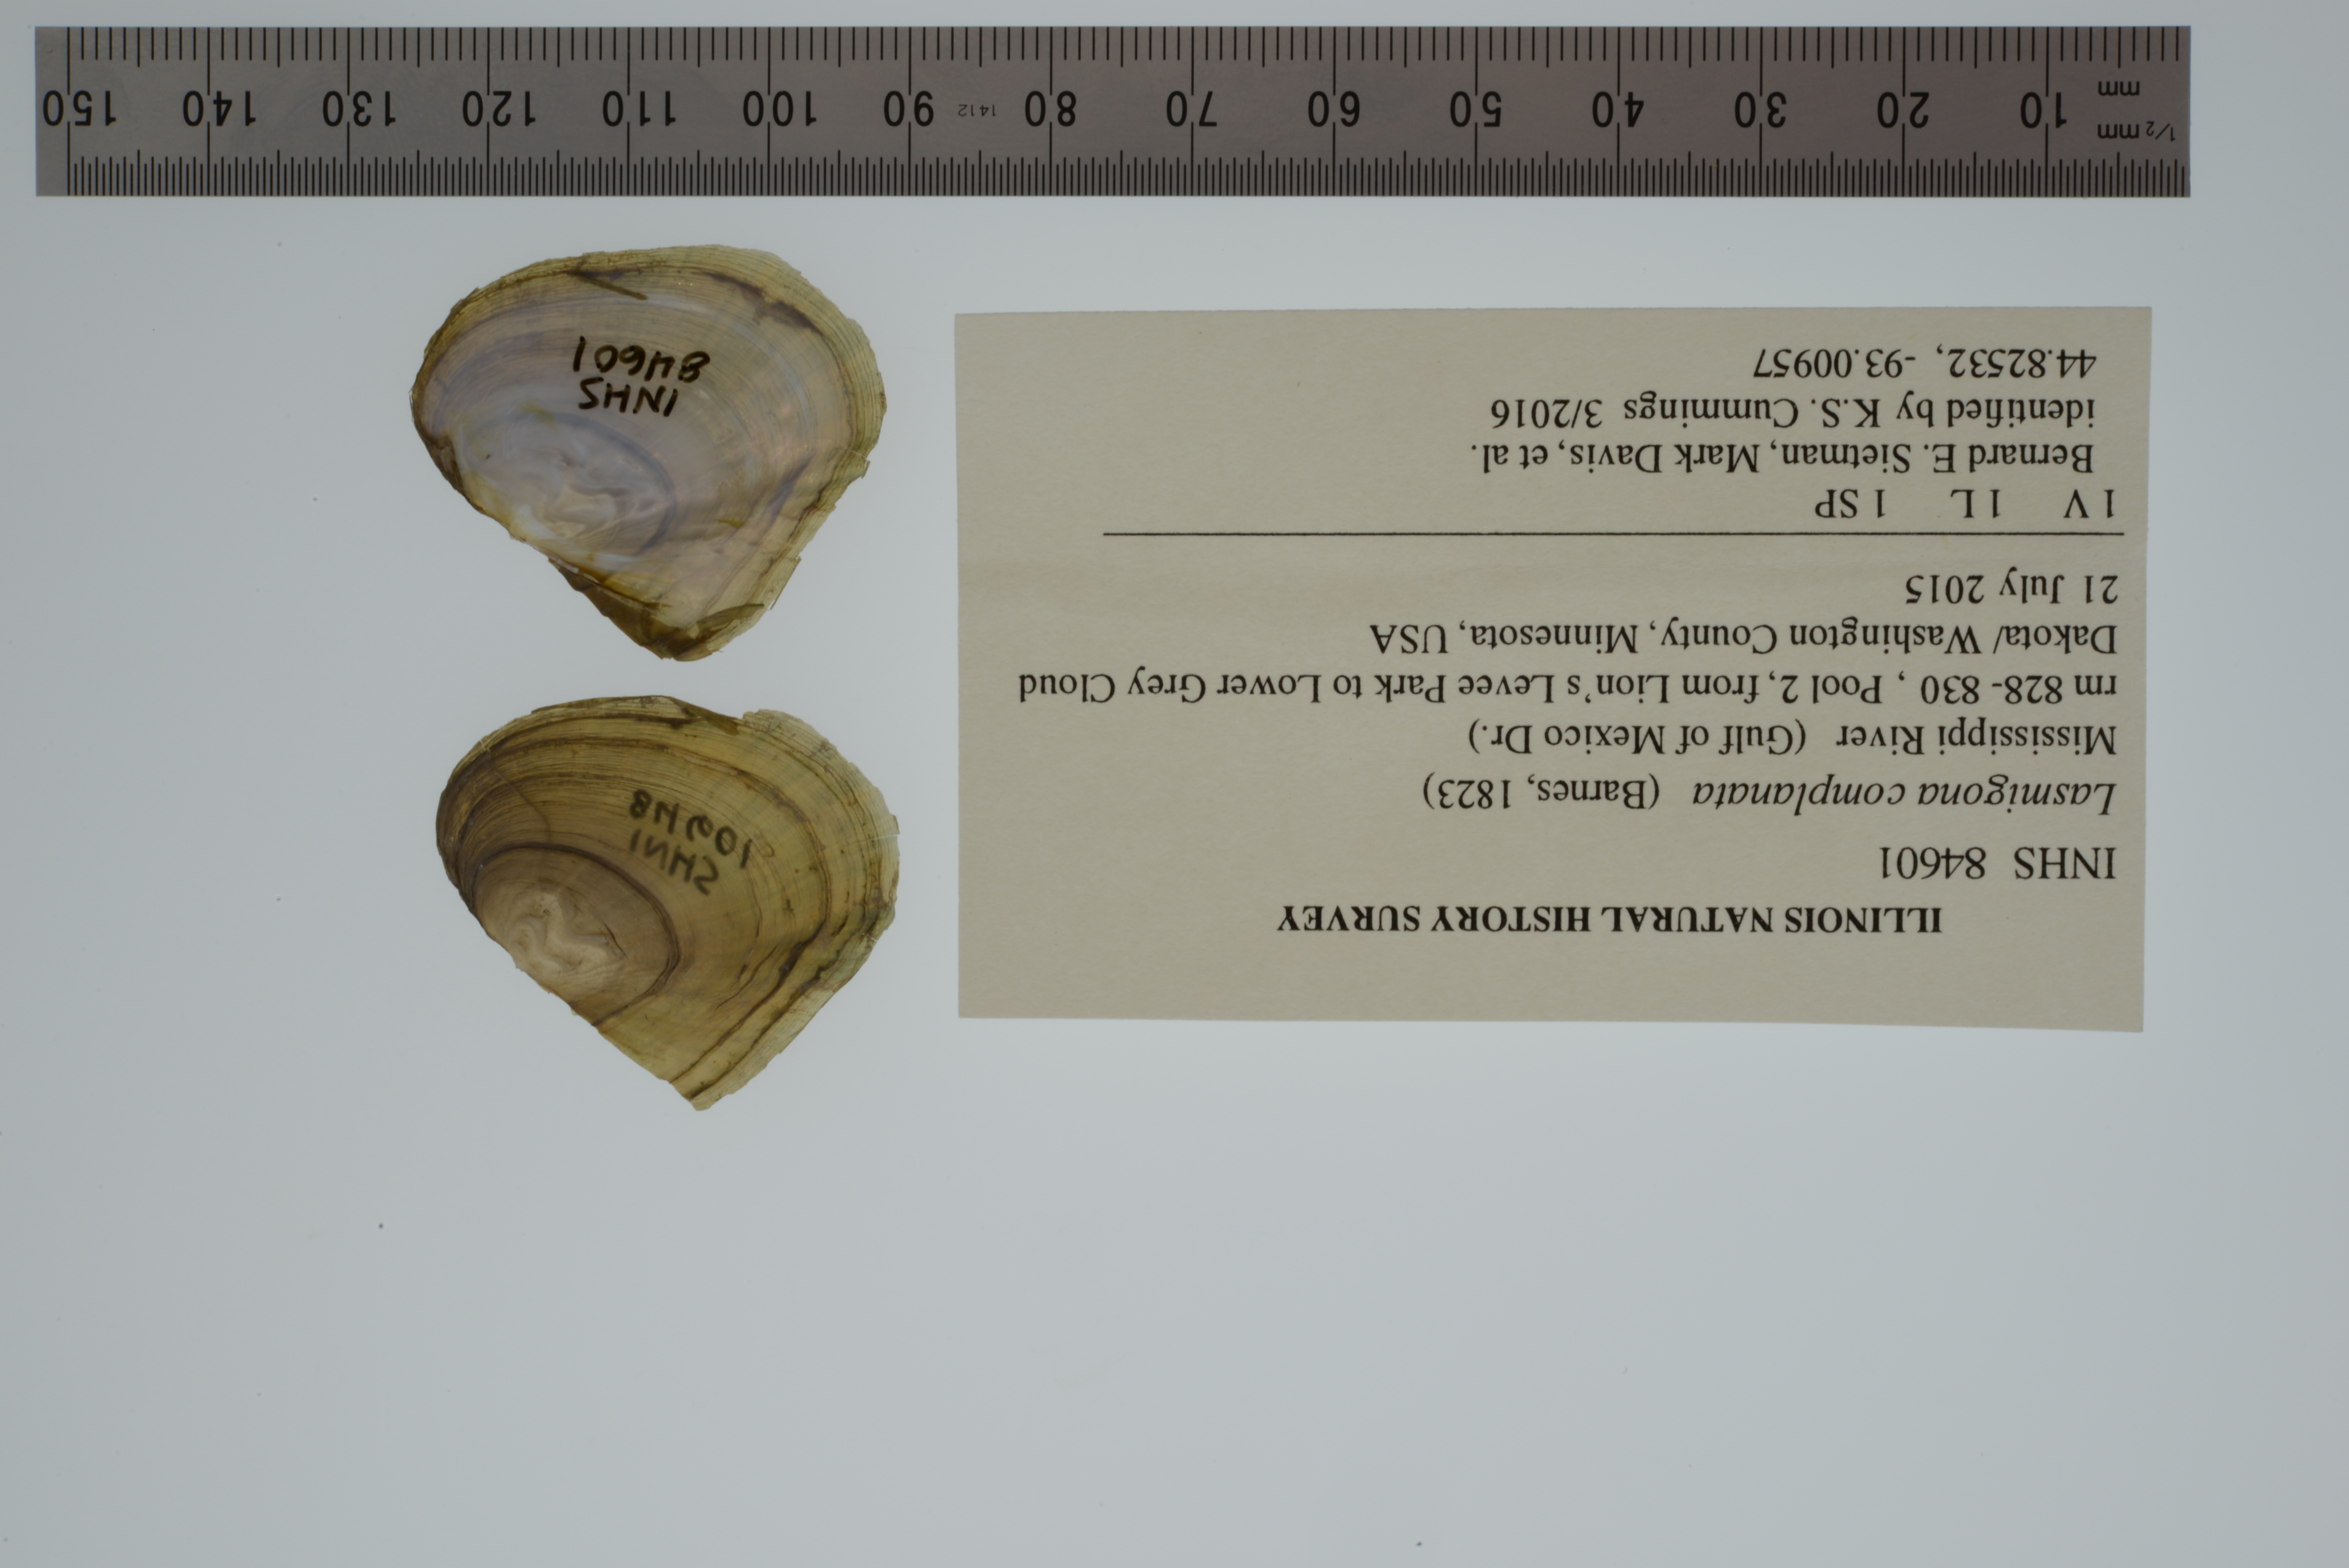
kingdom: Animalia
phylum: Mollusca
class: Bivalvia
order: Unionida
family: Unionidae
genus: Lasmigona
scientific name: Lasmigona complanata
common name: White heelsplitter
